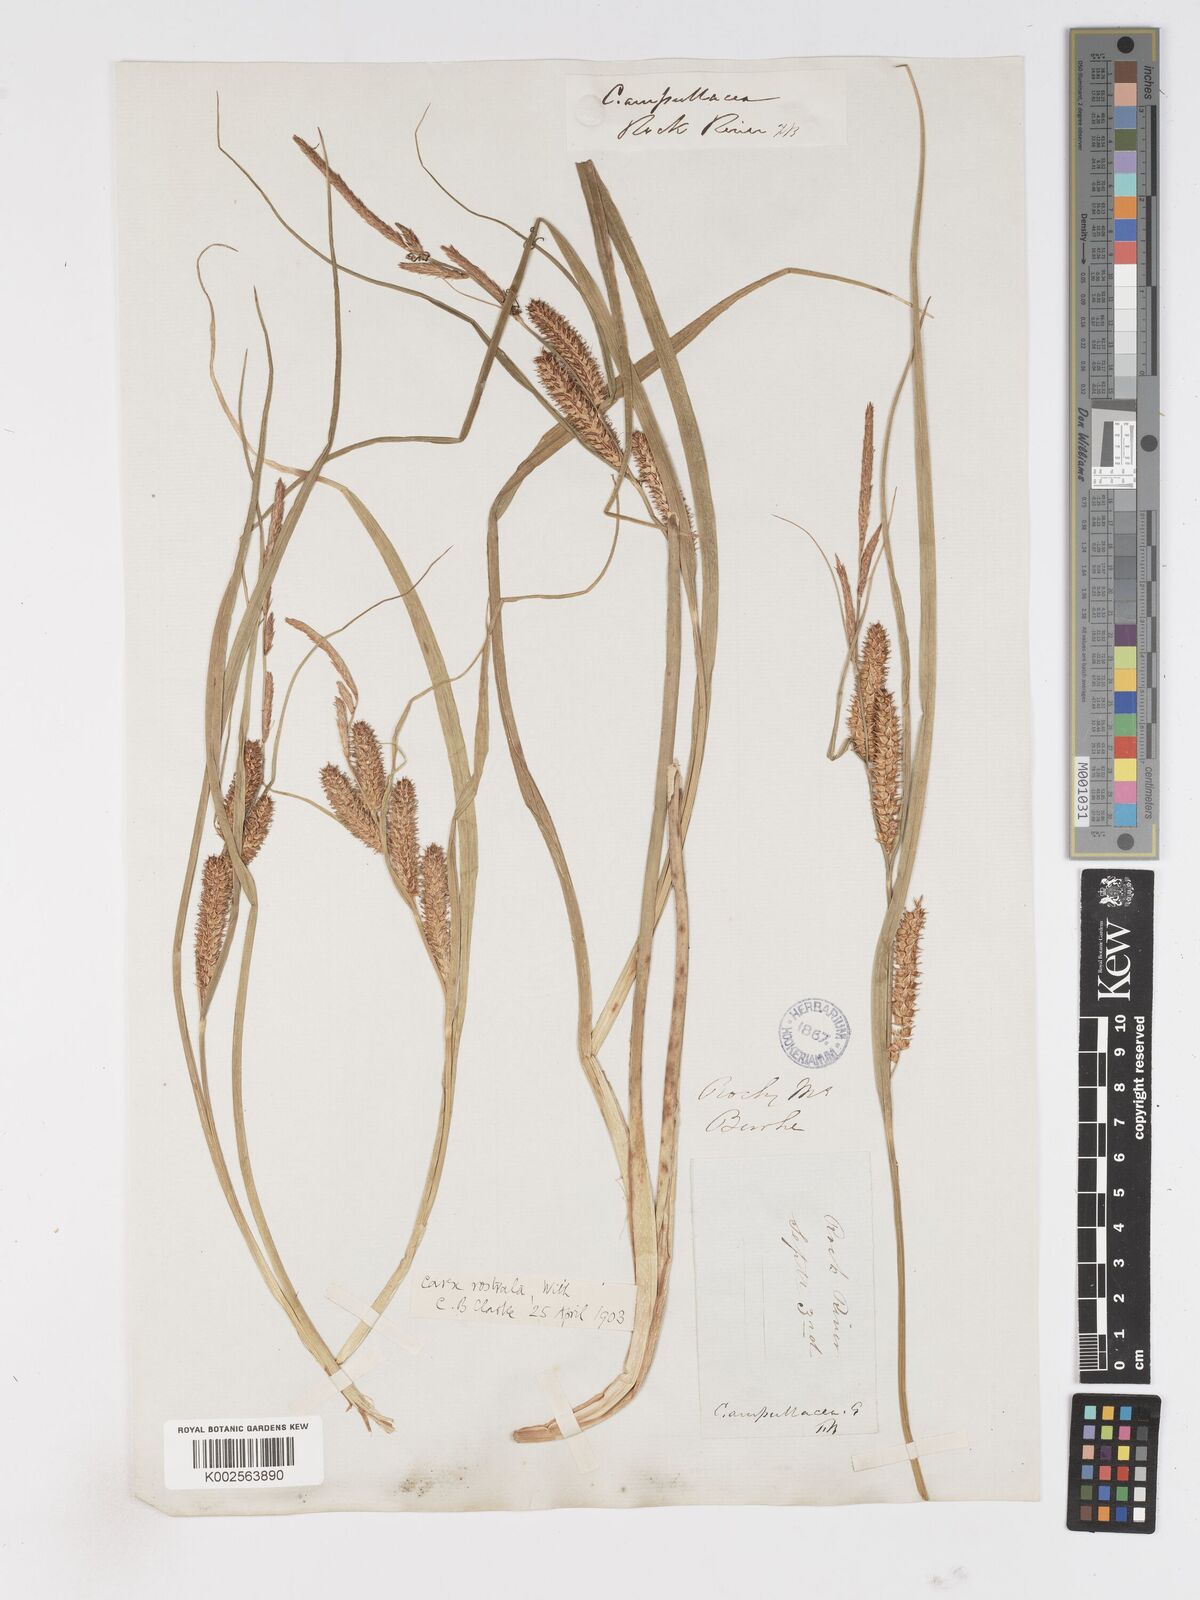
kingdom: Plantae
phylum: Tracheophyta
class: Liliopsida
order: Poales
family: Cyperaceae
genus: Carex
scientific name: Carex rostrata
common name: Bottle sedge
